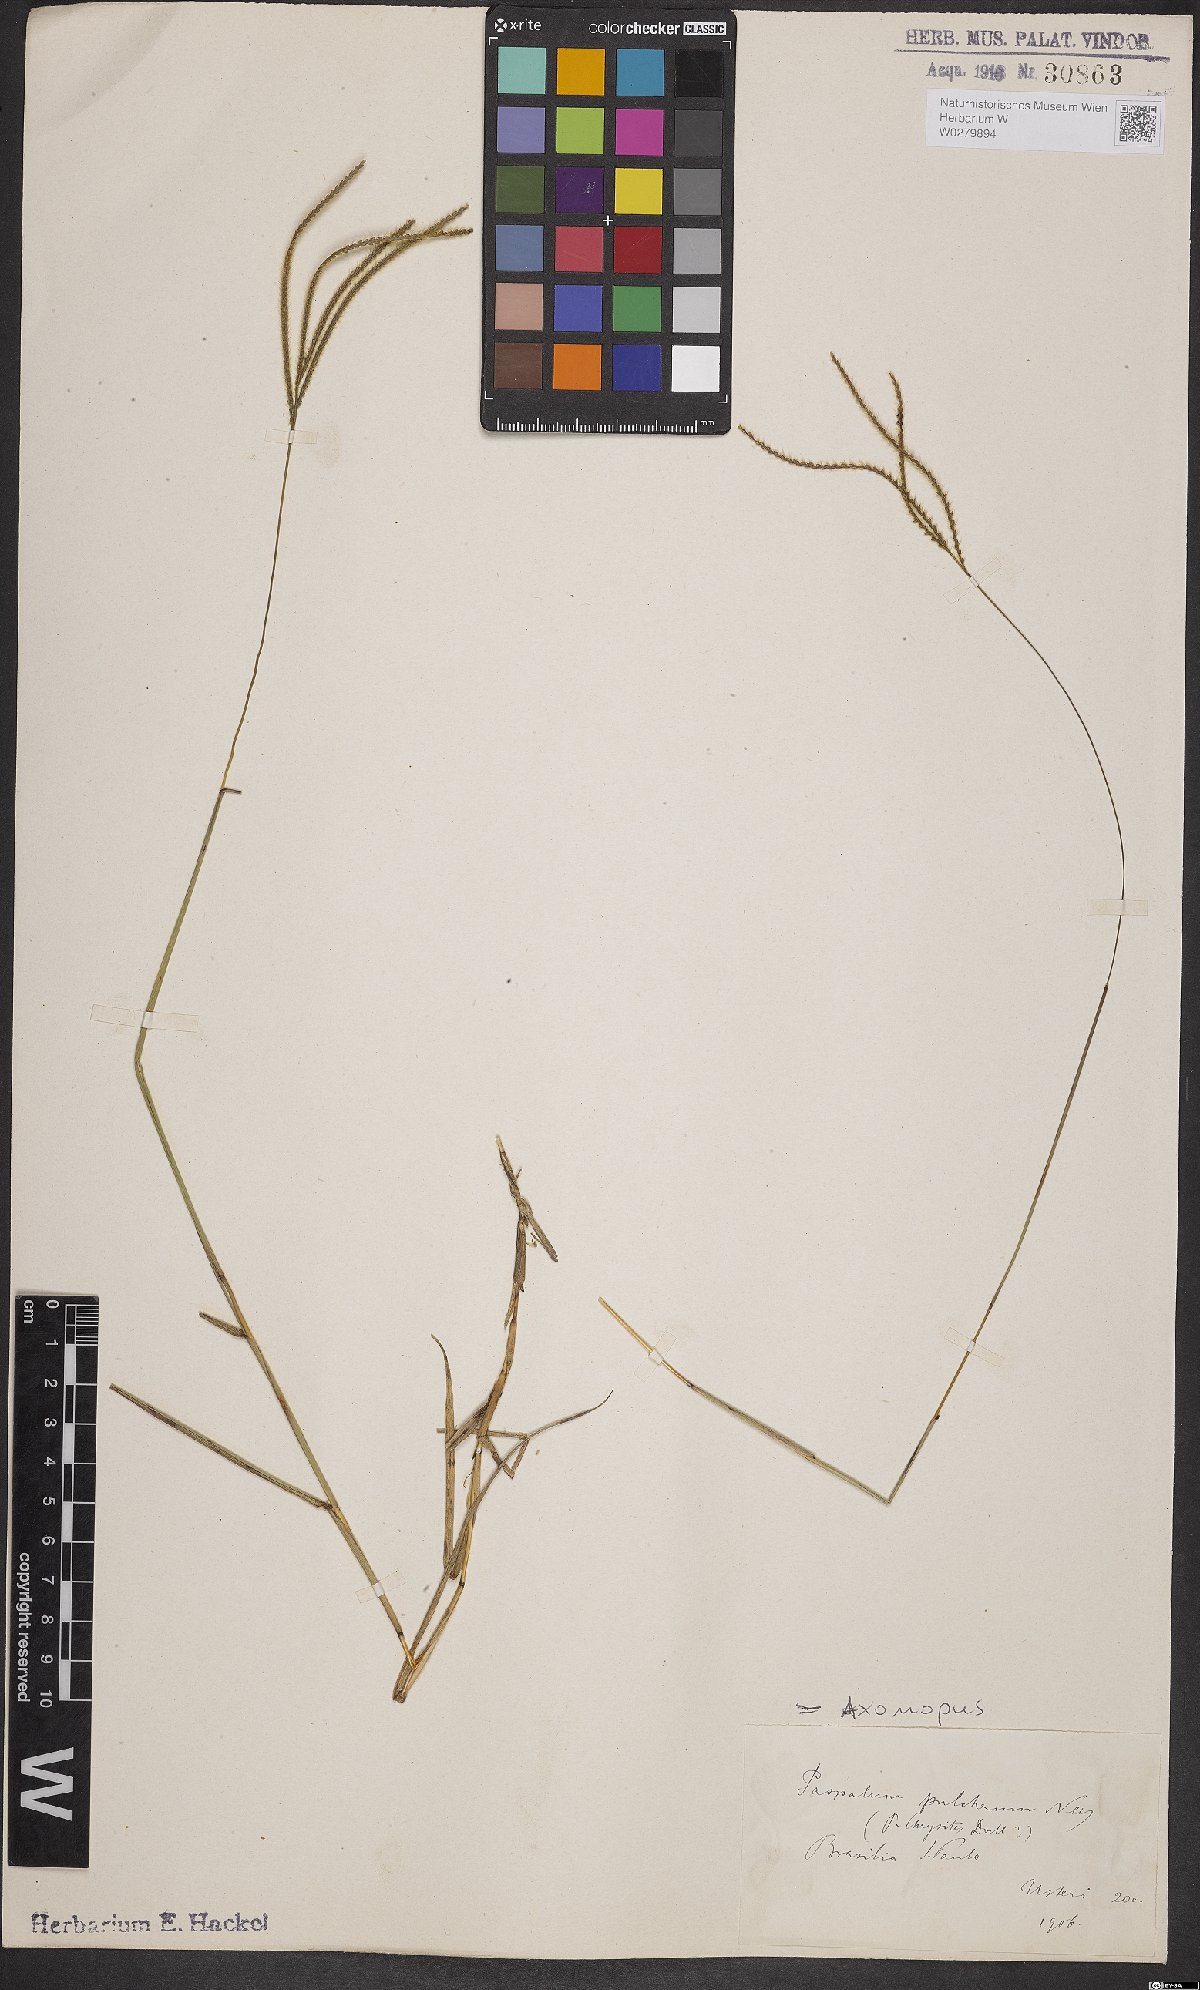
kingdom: Plantae
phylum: Tracheophyta
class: Liliopsida
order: Poales
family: Poaceae
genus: Axonopus
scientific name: Axonopus aureus
